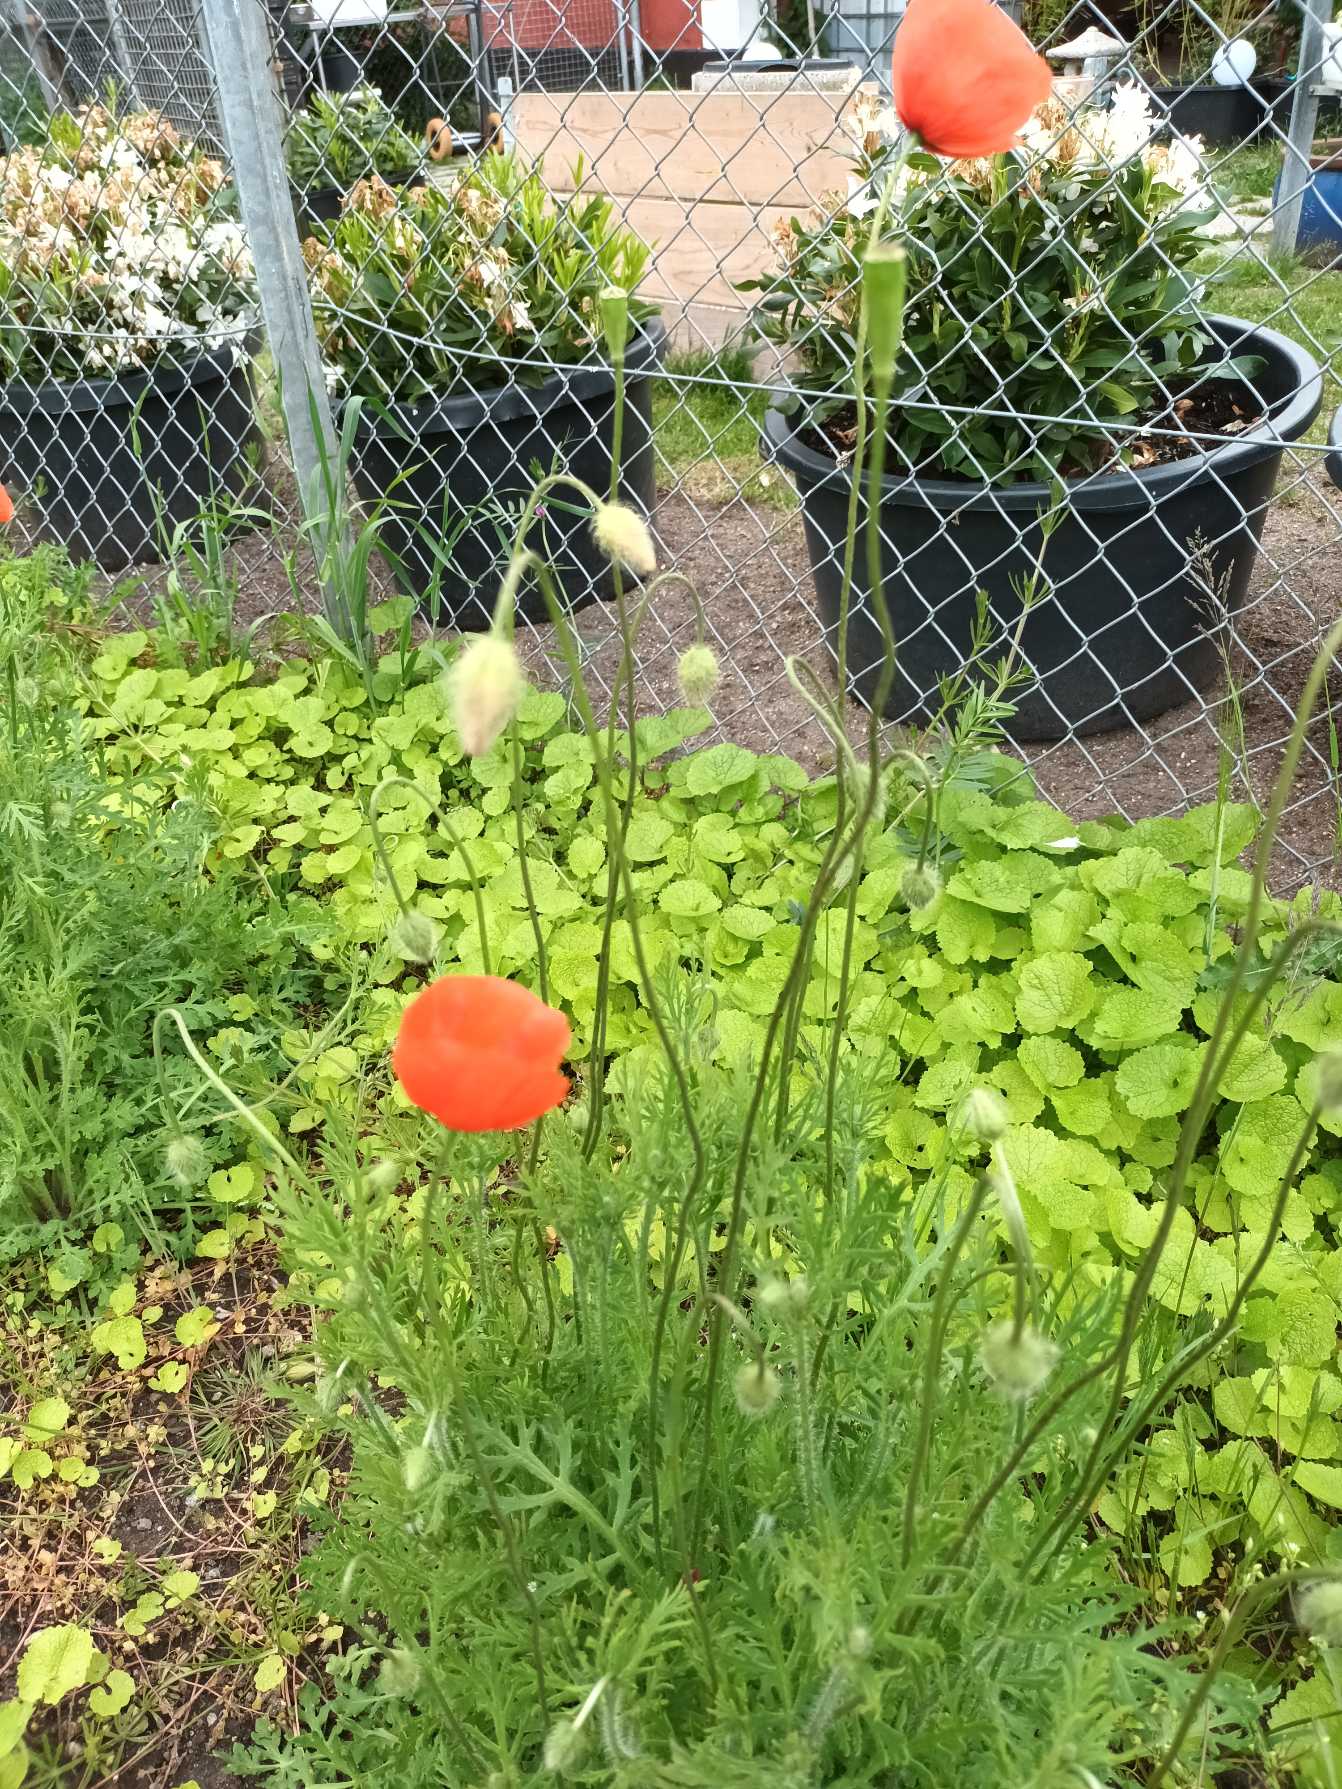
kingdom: Plantae
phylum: Tracheophyta
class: Magnoliopsida
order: Ranunculales
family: Papaveraceae
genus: Papaver
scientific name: Papaver dubium
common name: Gærde-valmue
